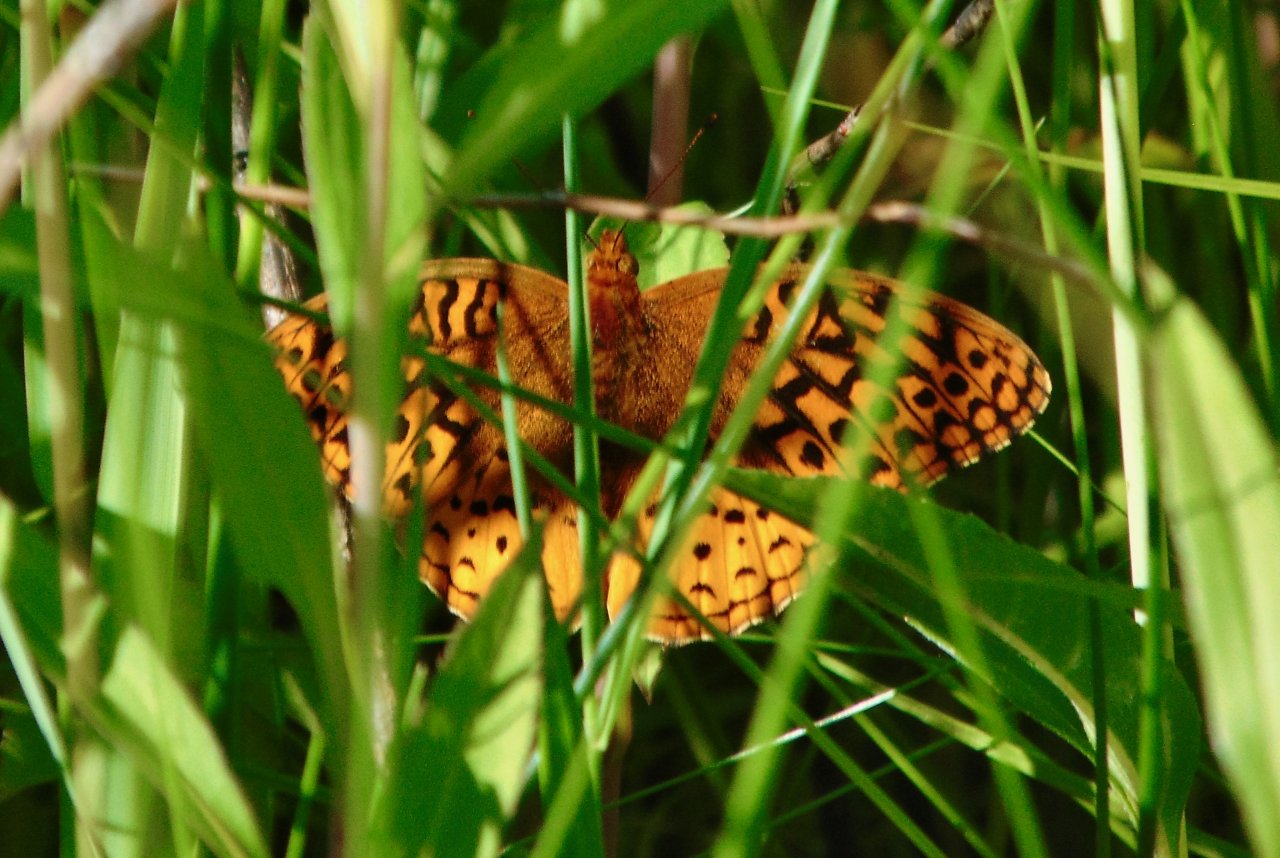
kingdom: Animalia
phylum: Arthropoda
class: Insecta
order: Lepidoptera
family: Nymphalidae
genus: Speyeria
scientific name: Speyeria cybele
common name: Great Spangled Fritillary
